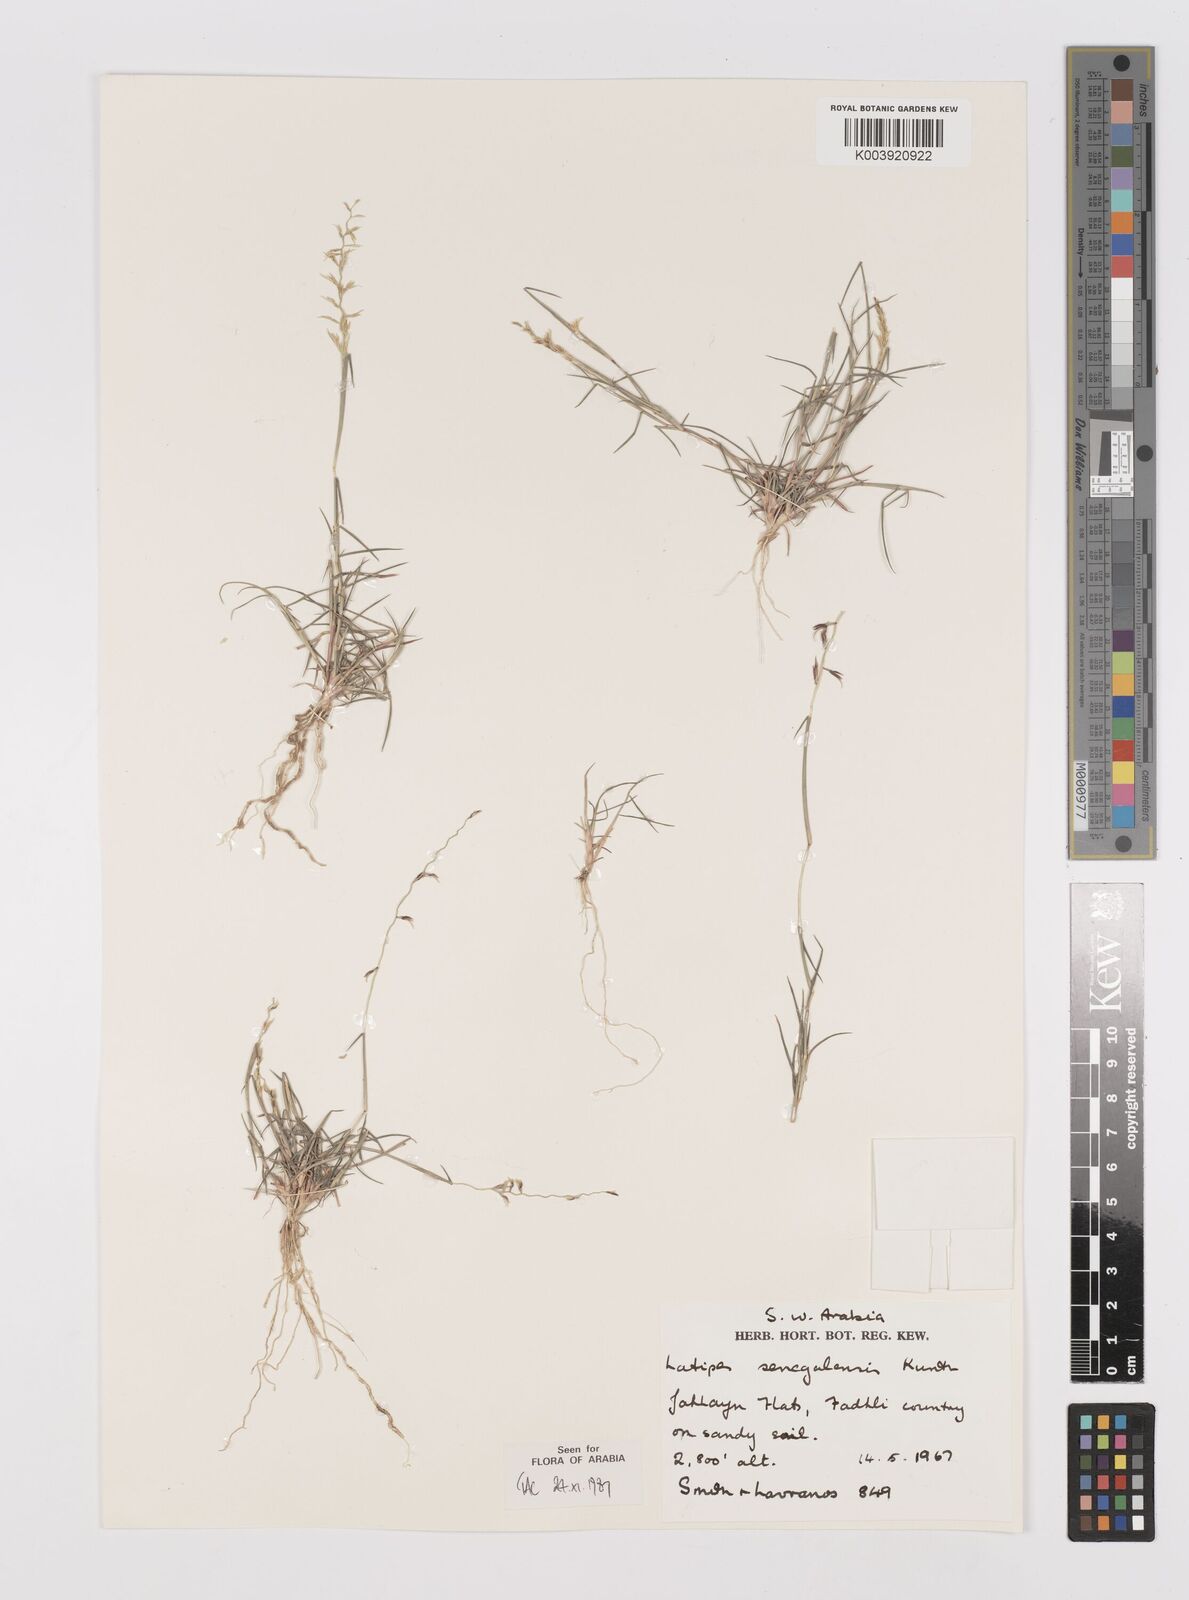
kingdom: Plantae
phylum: Tracheophyta
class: Liliopsida
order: Poales
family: Poaceae
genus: Leptothrium
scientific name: Leptothrium senegalense
